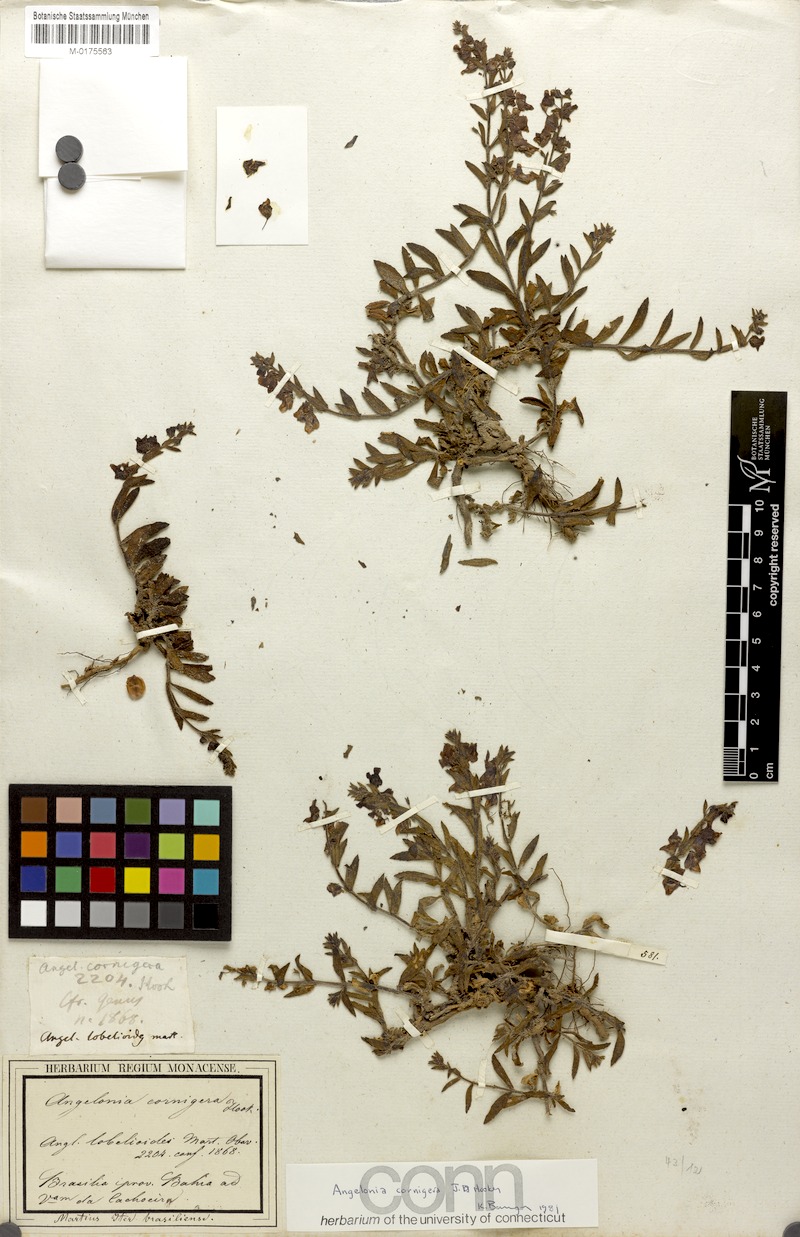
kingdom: Plantae
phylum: Tracheophyta
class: Magnoliopsida
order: Lamiales
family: Plantaginaceae
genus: Angelonia
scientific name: Angelonia cornigera
